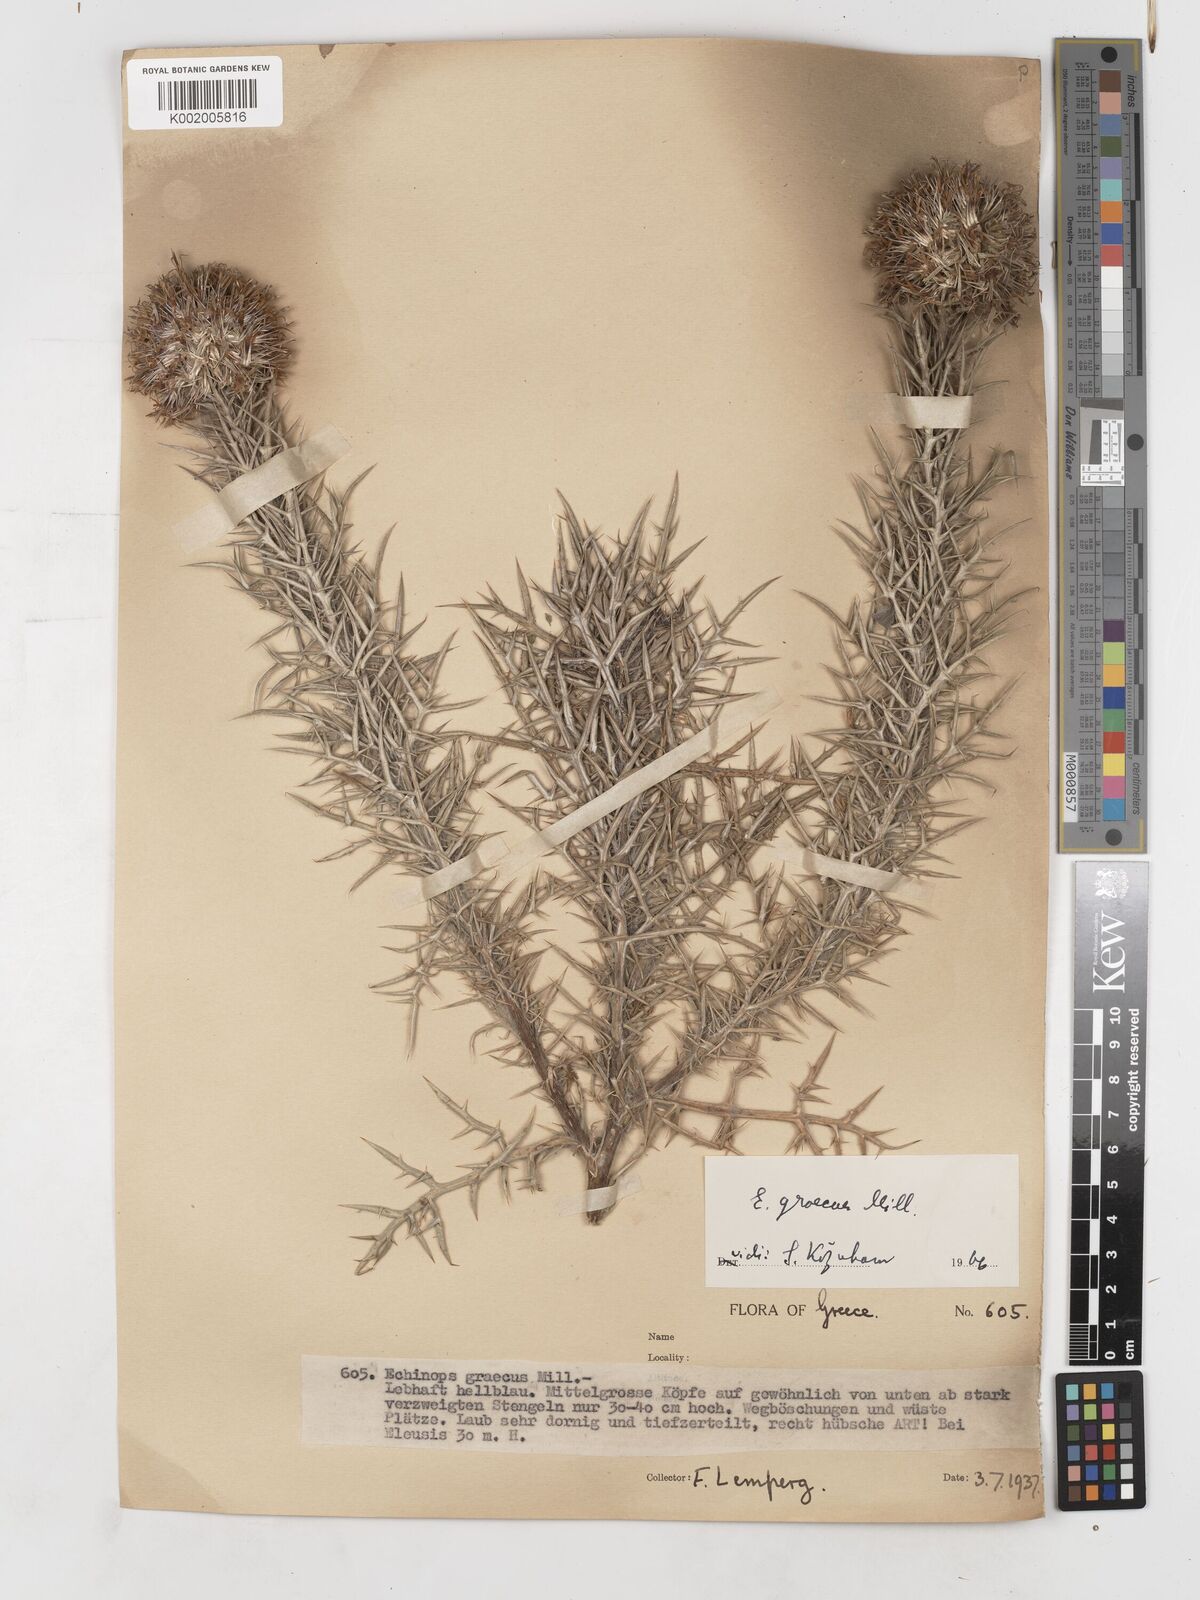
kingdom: Plantae
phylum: Tracheophyta
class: Magnoliopsida
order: Asterales
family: Asteraceae
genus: Echinops
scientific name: Echinops graecus
